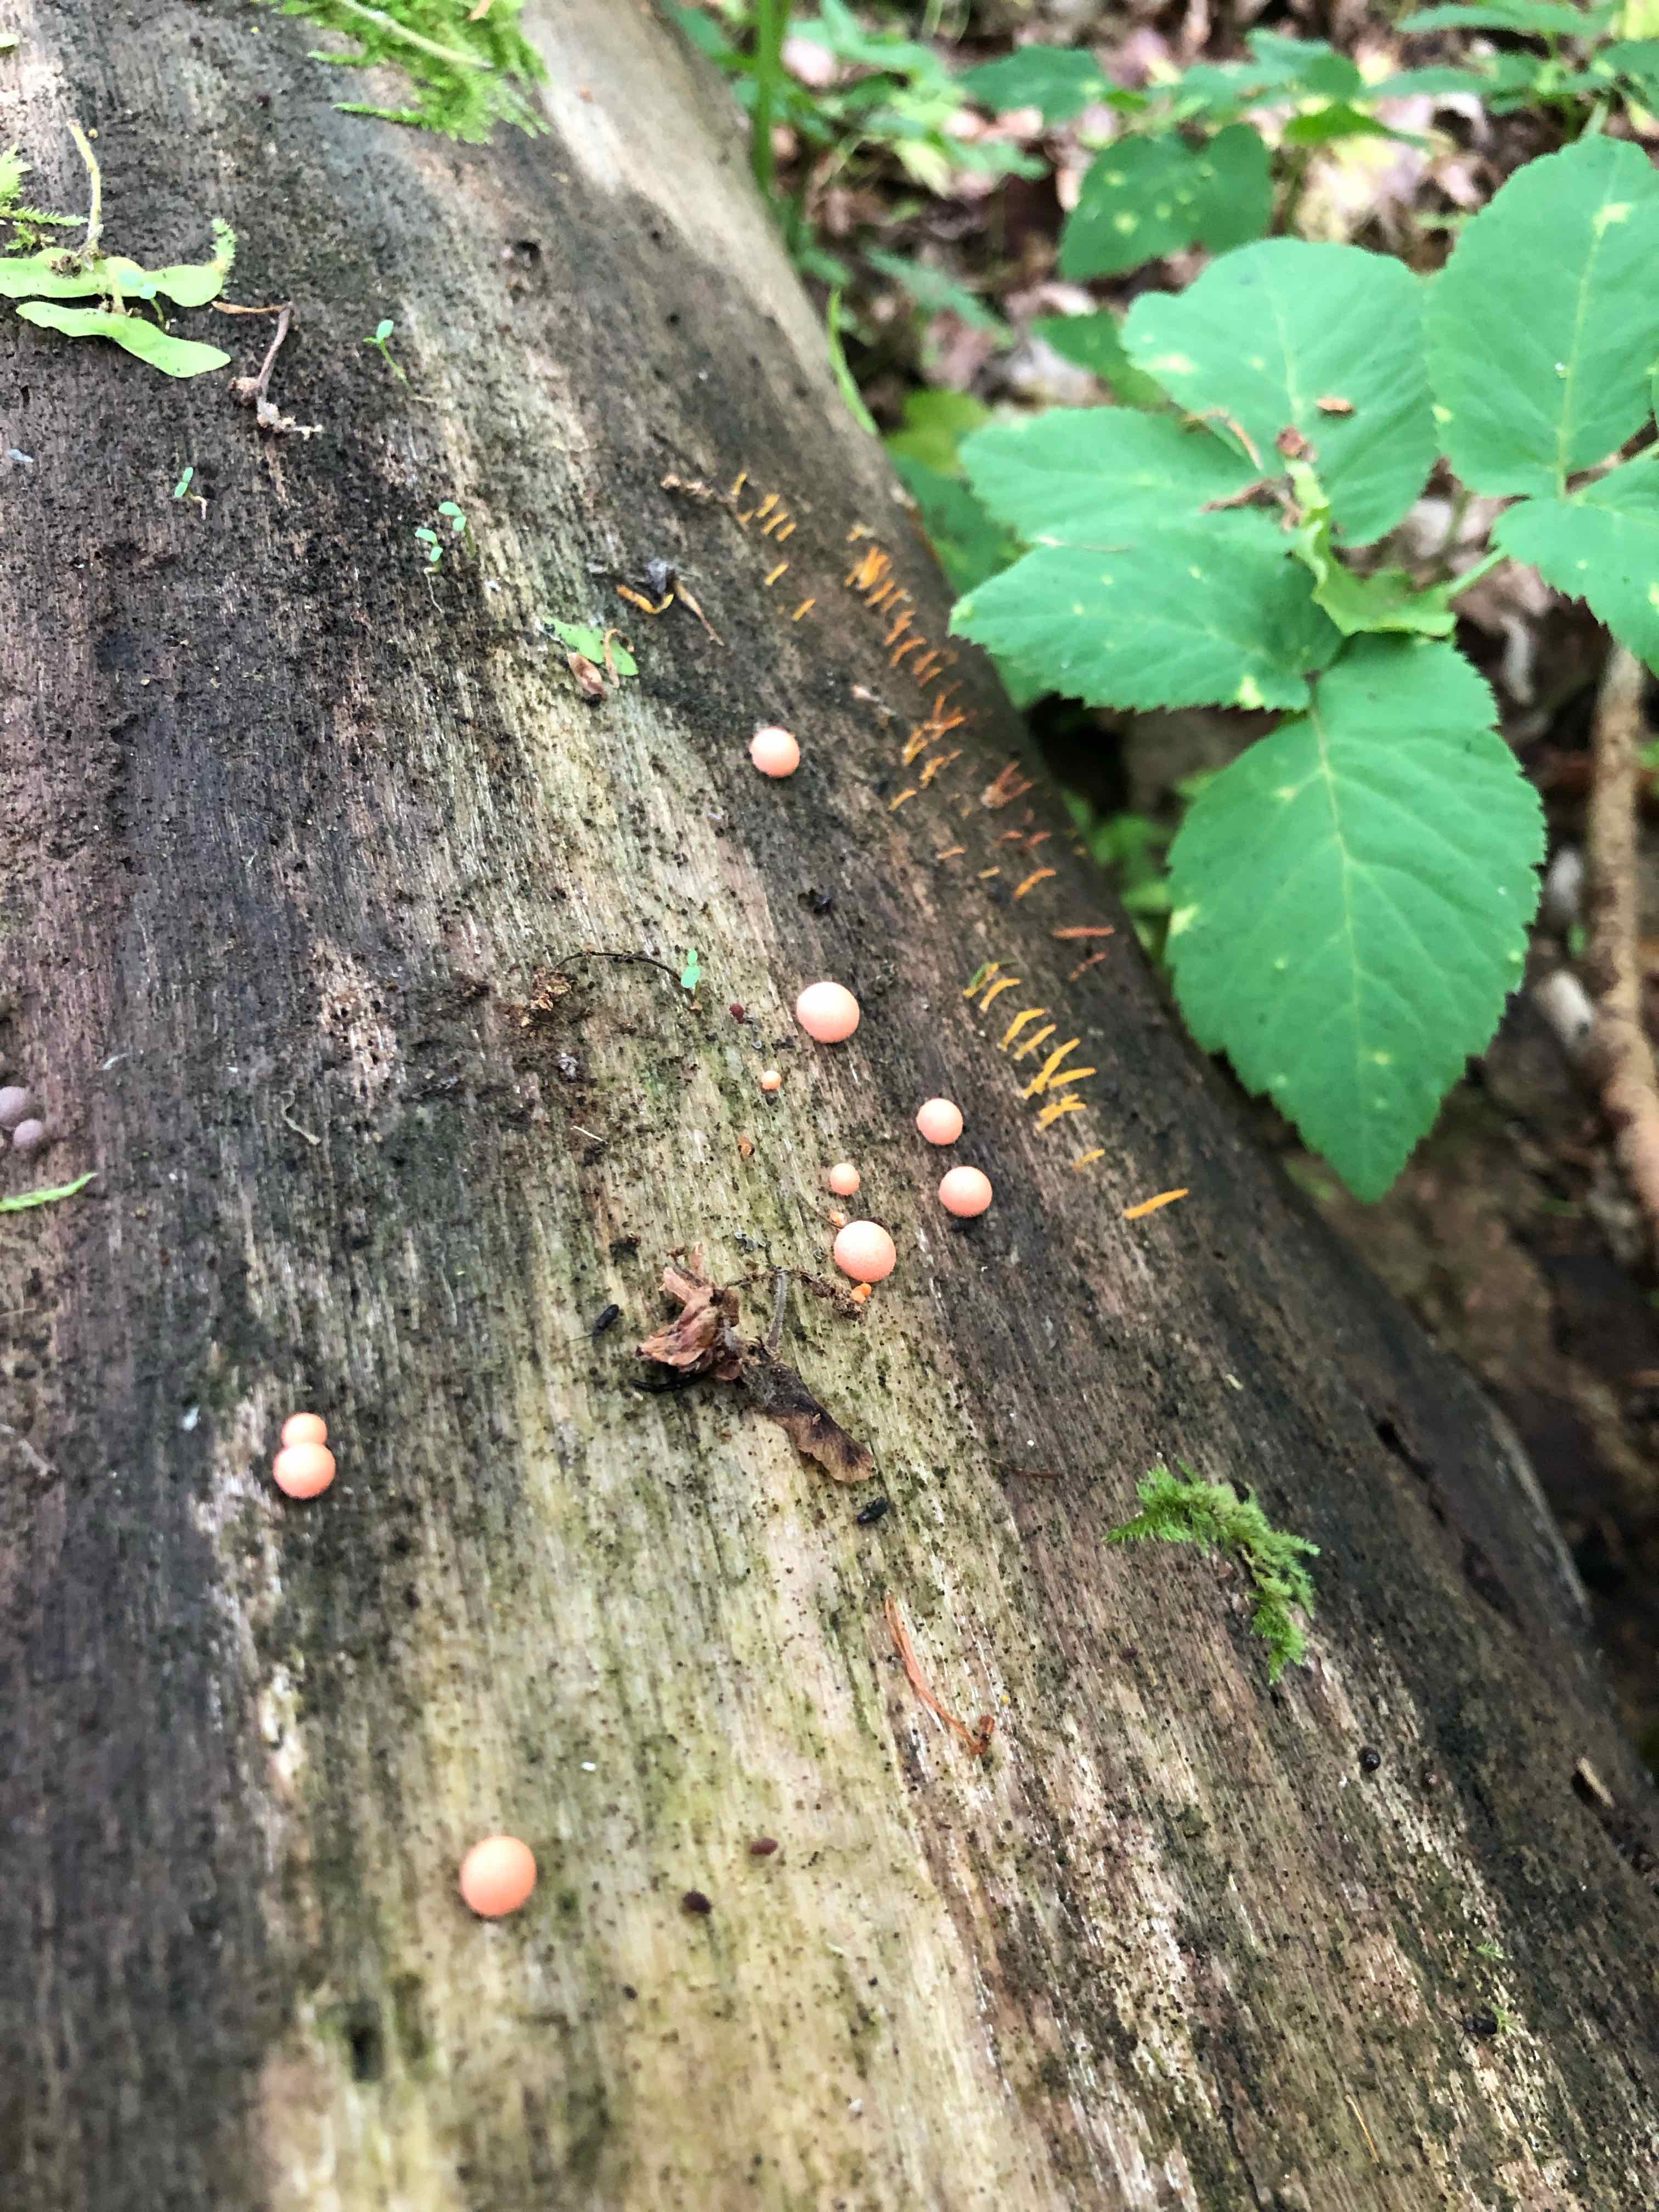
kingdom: Protozoa
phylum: Mycetozoa
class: Myxomycetes
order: Cribrariales
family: Tubiferaceae
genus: Lycogala
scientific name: Lycogala epidendrum
